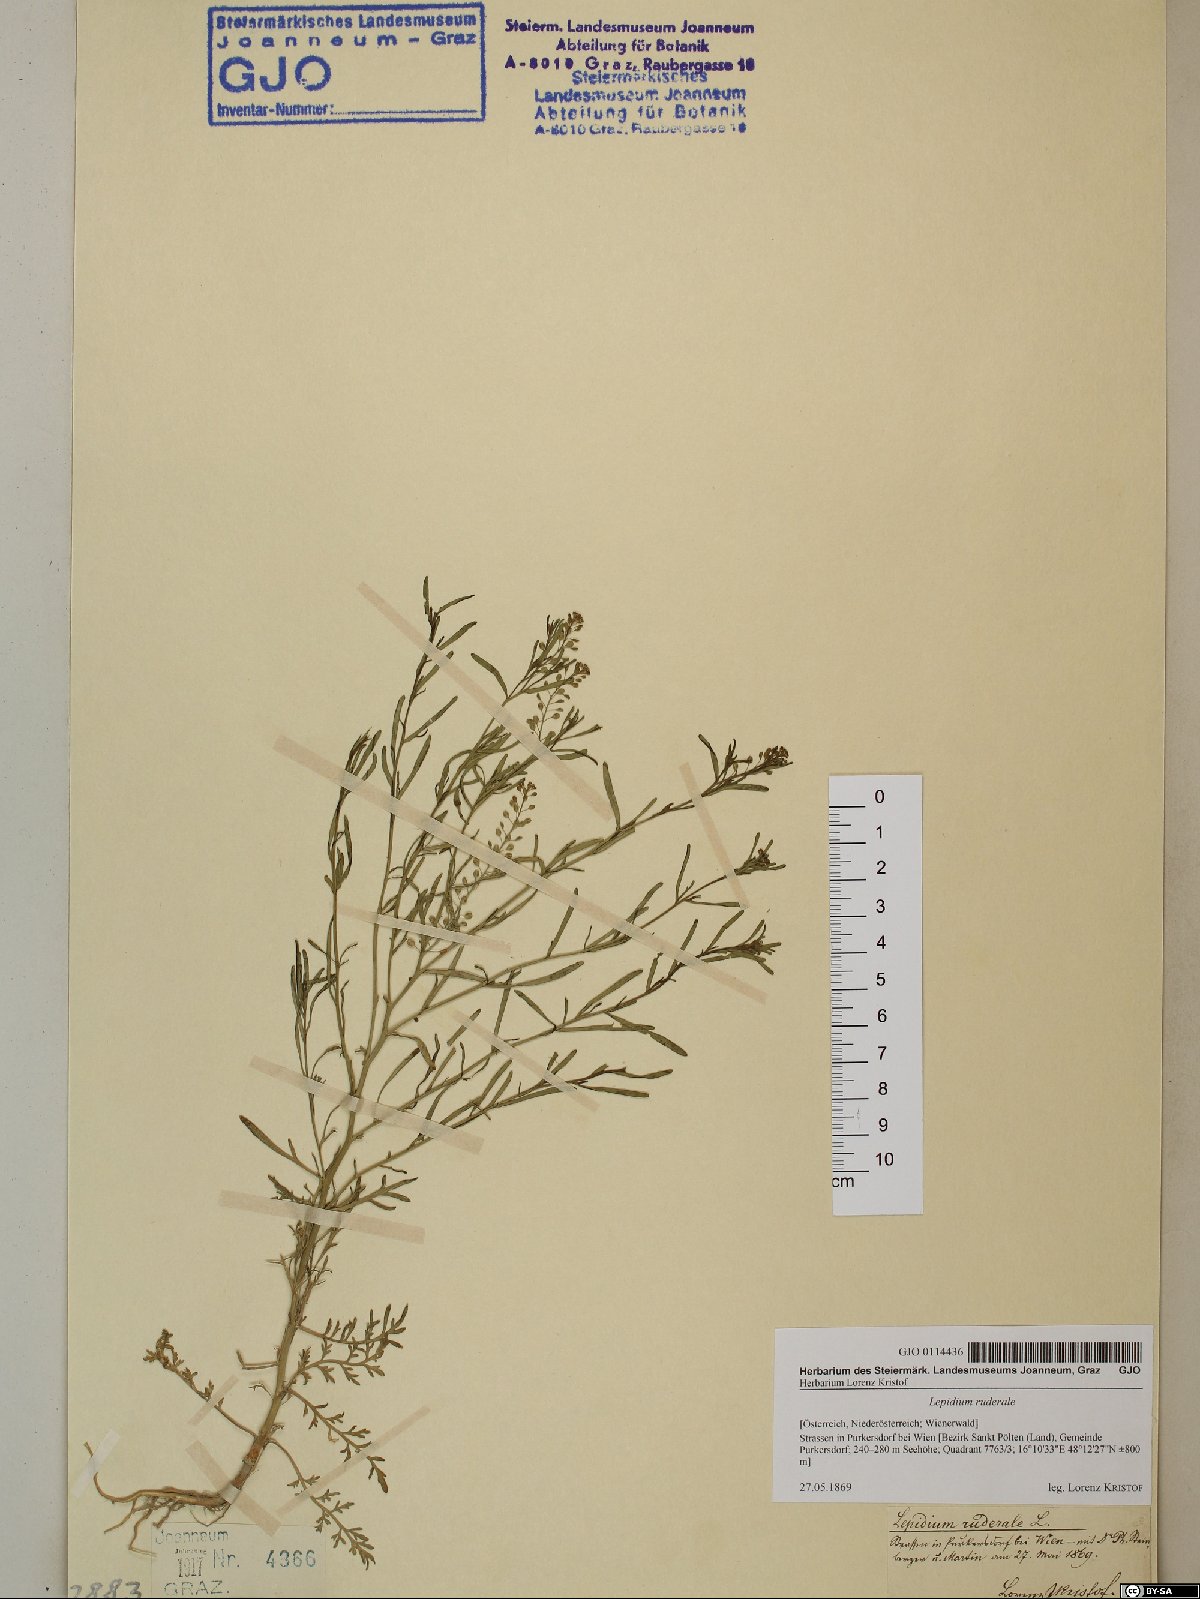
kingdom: Plantae
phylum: Tracheophyta
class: Magnoliopsida
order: Brassicales
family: Brassicaceae
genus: Lepidium
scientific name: Lepidium ruderale
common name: Narrow-leaved pepperwort
